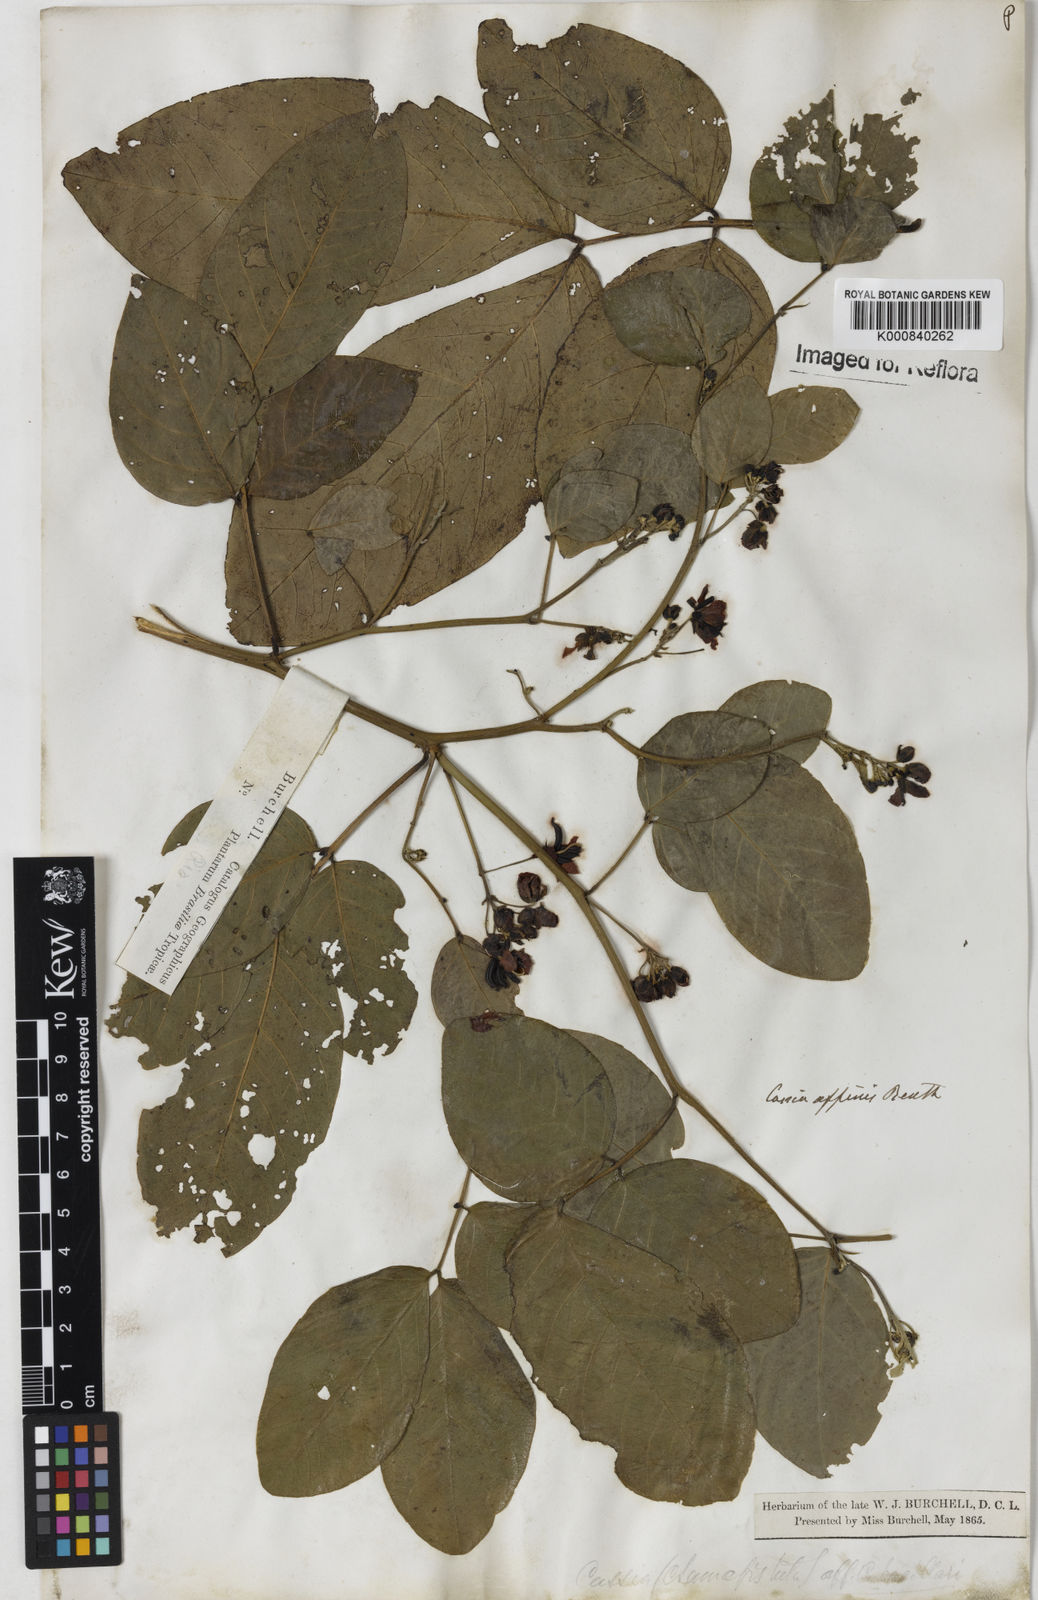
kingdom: Plantae
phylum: Tracheophyta
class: Magnoliopsida
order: Fabales
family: Fabaceae
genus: Senna
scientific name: Senna affinis
